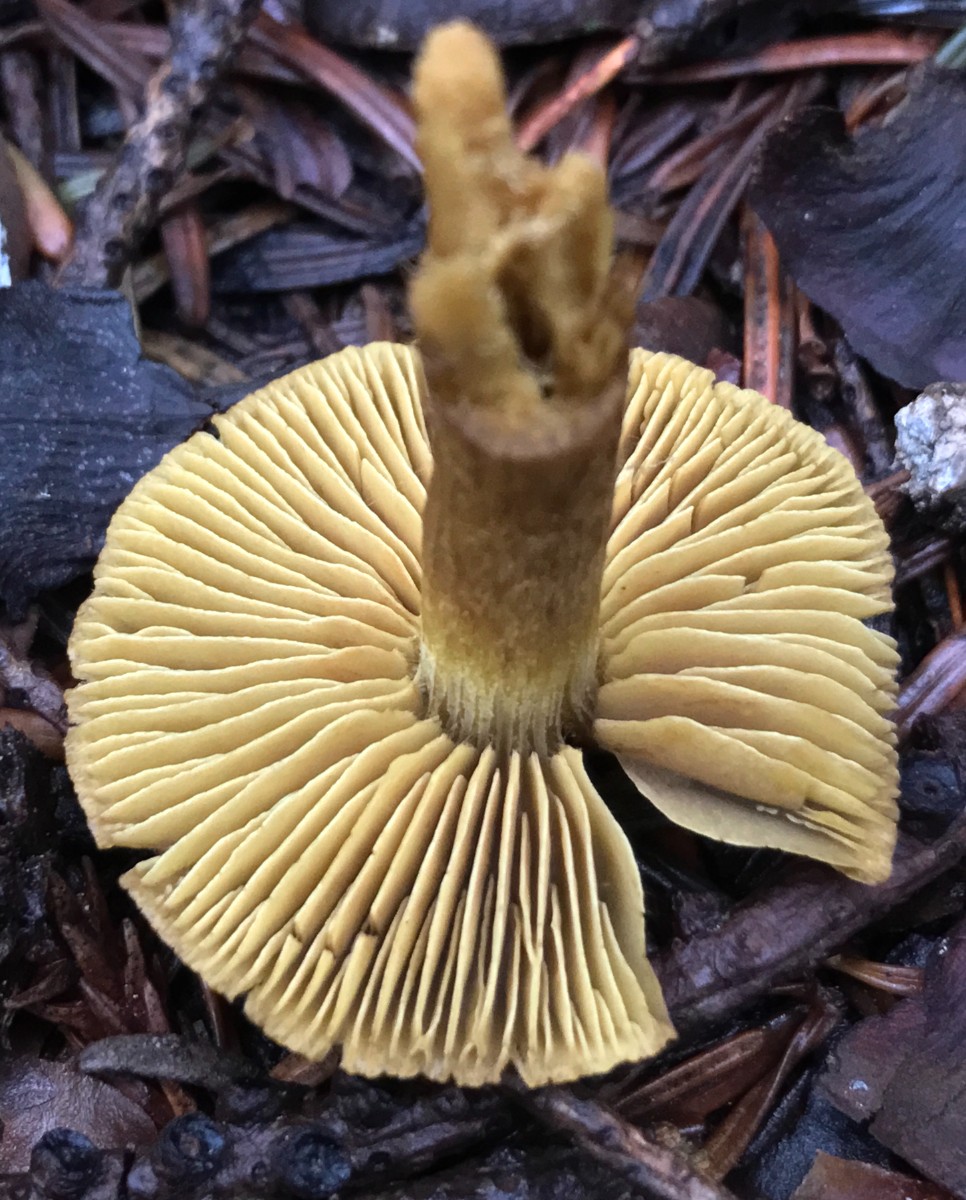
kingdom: Fungi
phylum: Basidiomycota
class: Agaricomycetes
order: Agaricales
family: Cortinariaceae
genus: Cortinarius
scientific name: Cortinarius olivaceofuscus
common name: olivenbrun slørhat
